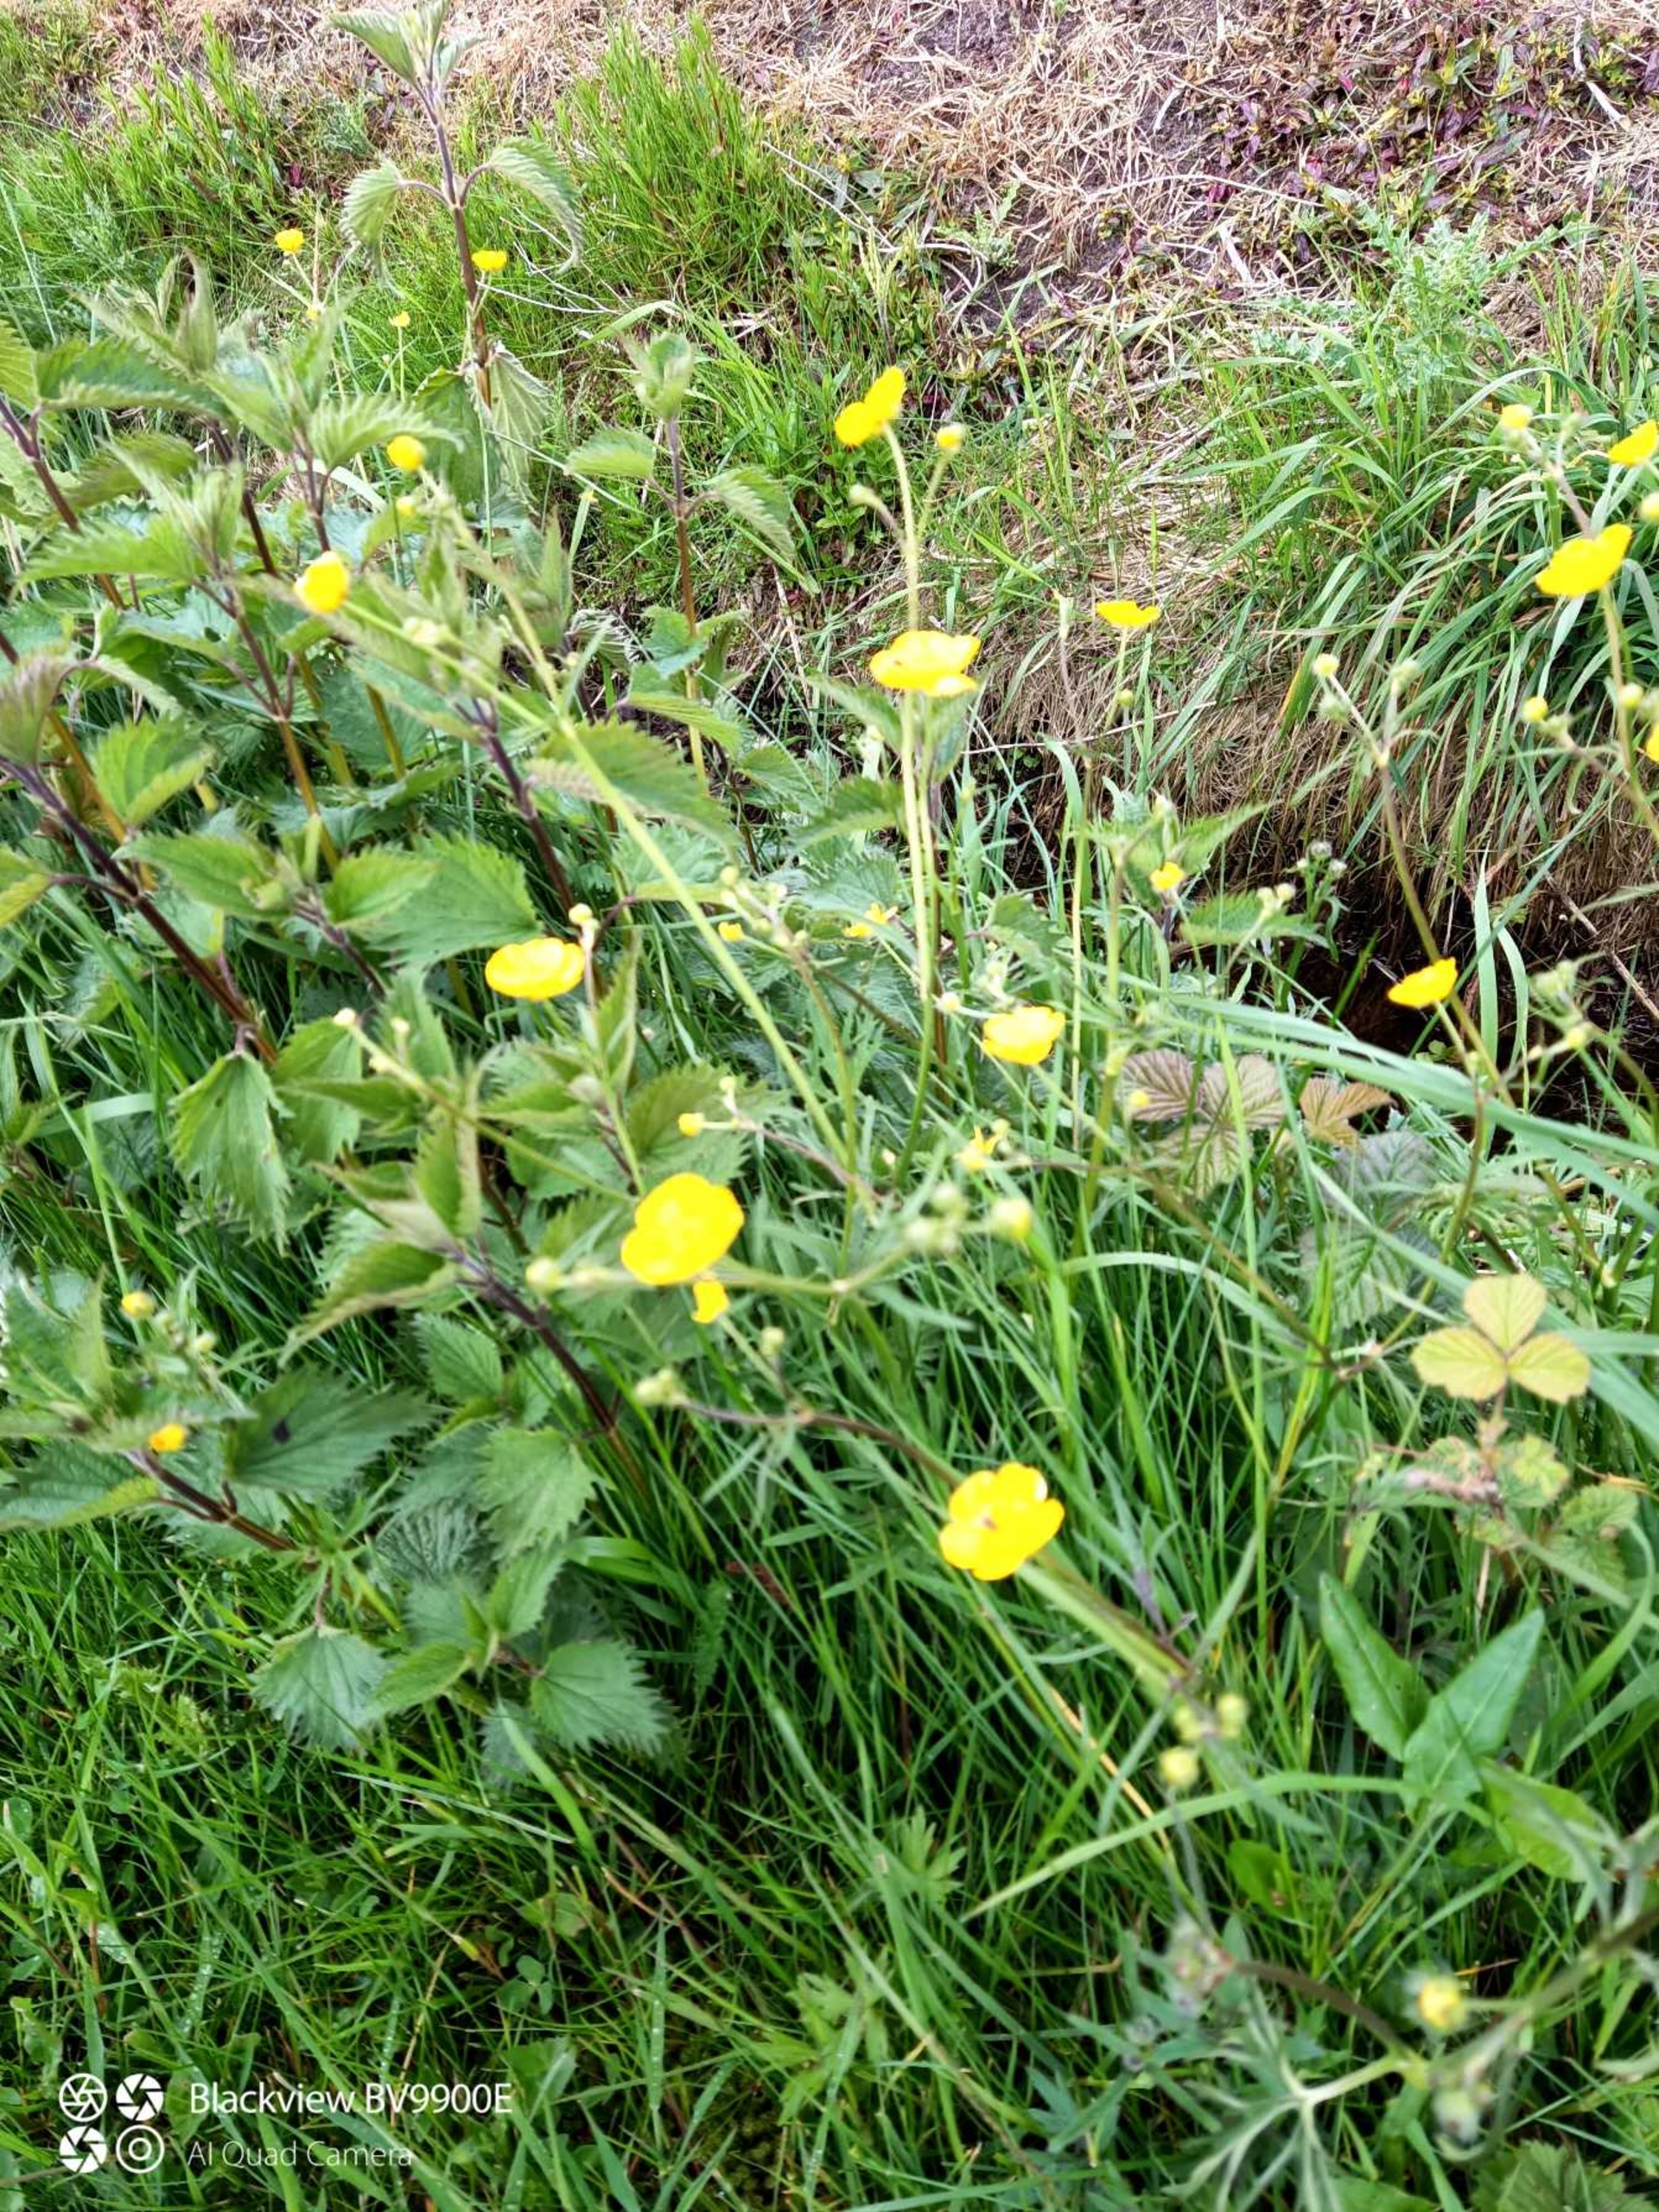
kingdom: Plantae
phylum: Tracheophyta
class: Magnoliopsida
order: Ranunculales
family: Ranunculaceae
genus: Ranunculus
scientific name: Ranunculus acris
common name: Bidende ranunkel
